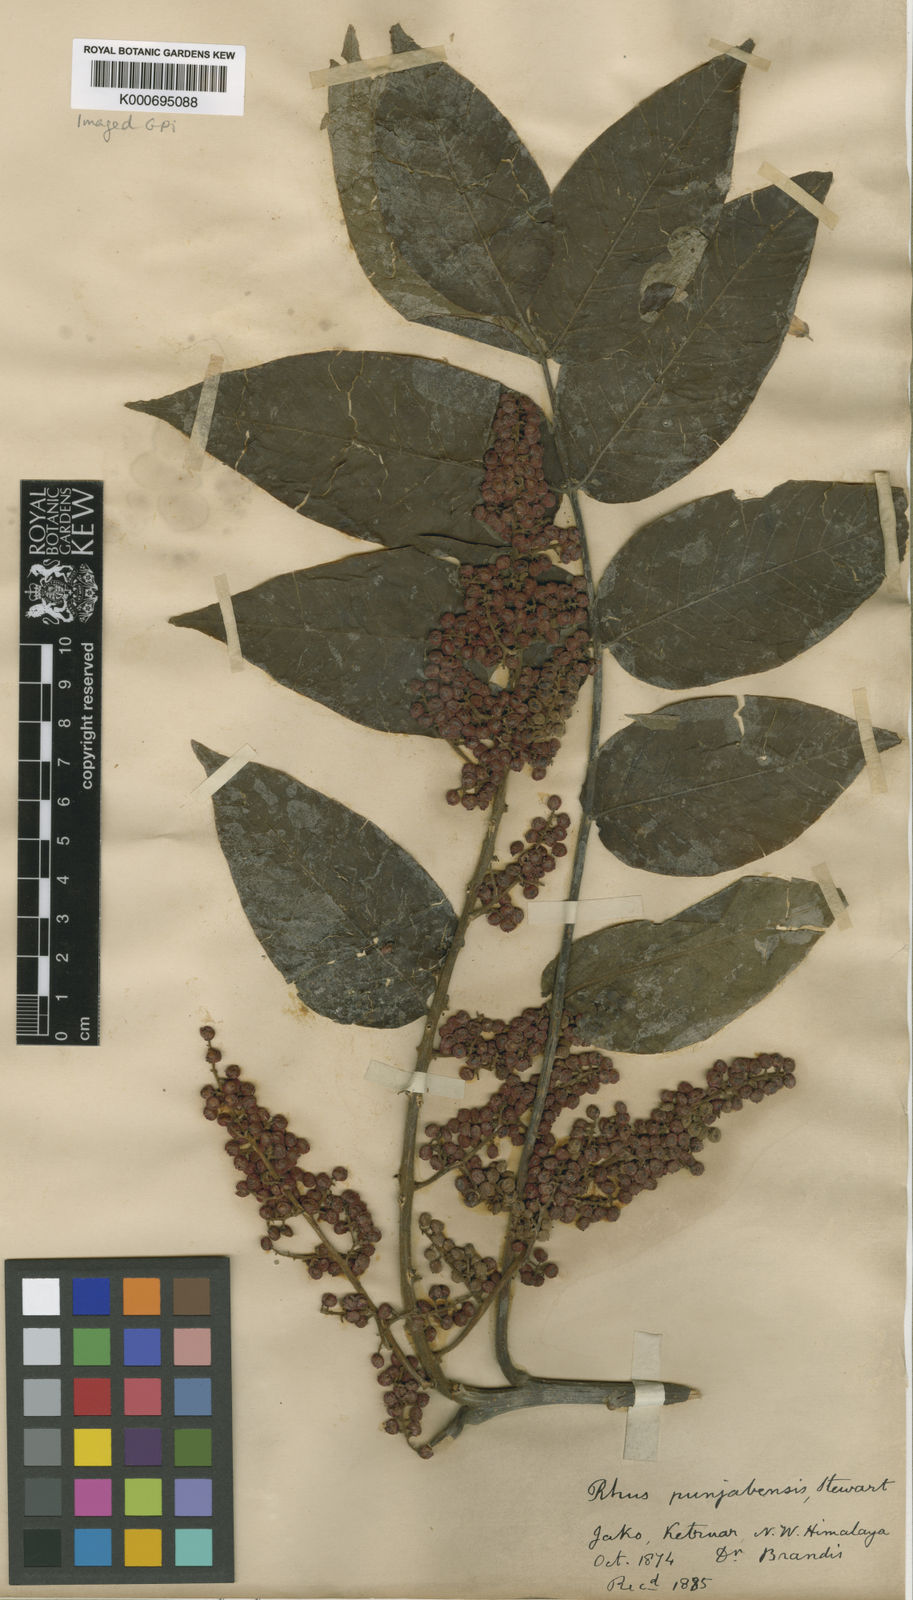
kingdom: Plantae
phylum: Tracheophyta
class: Magnoliopsida
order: Sapindales
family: Anacardiaceae
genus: Rhus
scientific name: Rhus punjabensis
